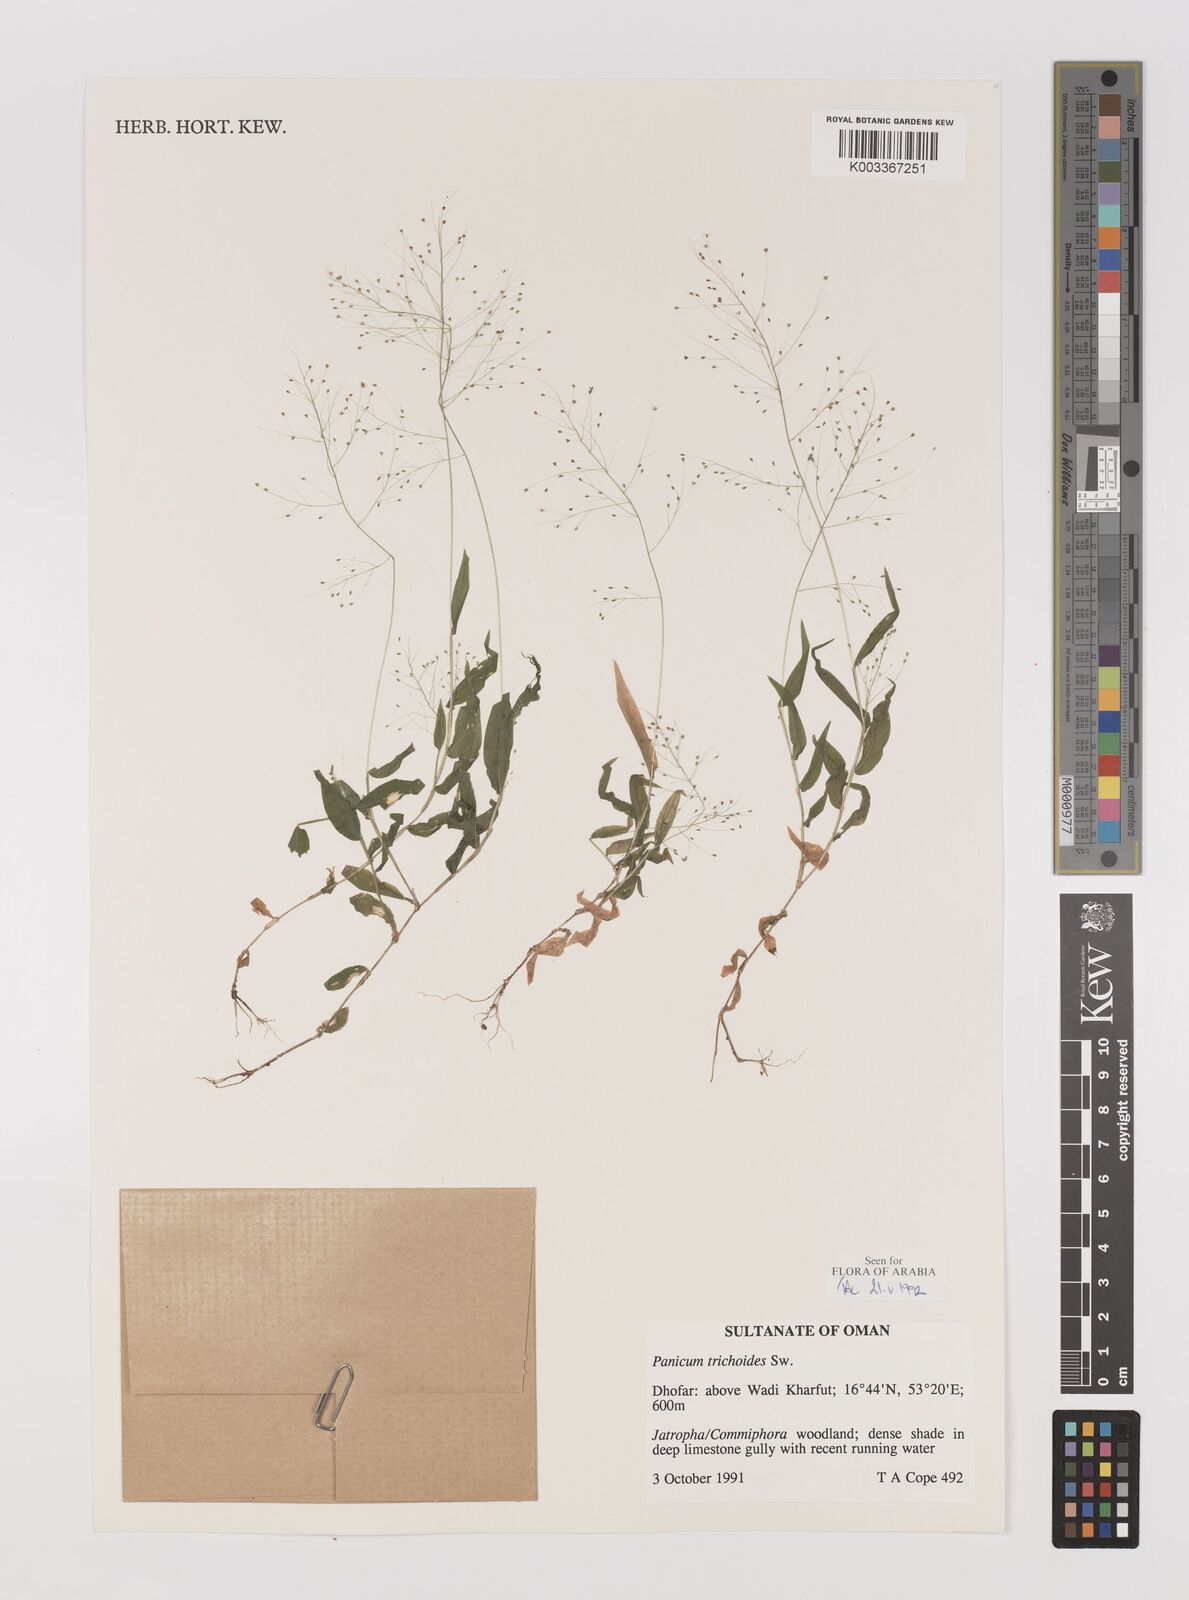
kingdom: Plantae
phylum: Tracheophyta
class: Liliopsida
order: Poales
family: Poaceae
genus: Panicum
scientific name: Panicum trichoides
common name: Tickle grass
